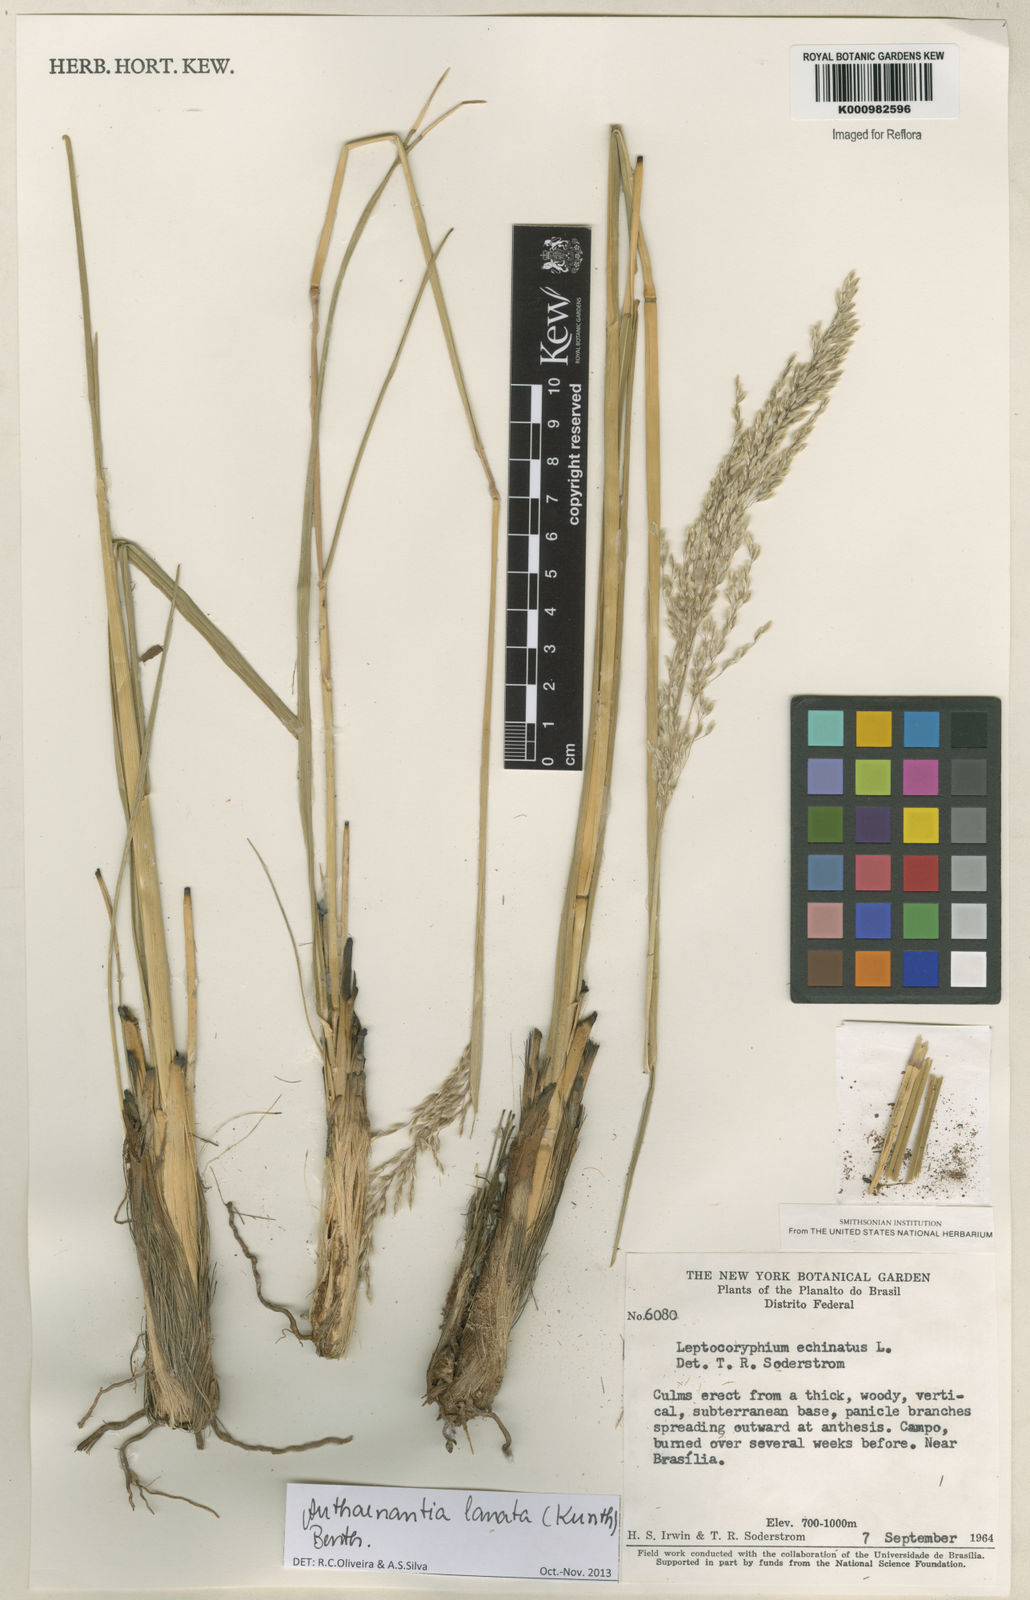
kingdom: Plantae
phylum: Tracheophyta
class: Liliopsida
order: Poales
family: Poaceae
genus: Anthenantia
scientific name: Anthenantia lanata
